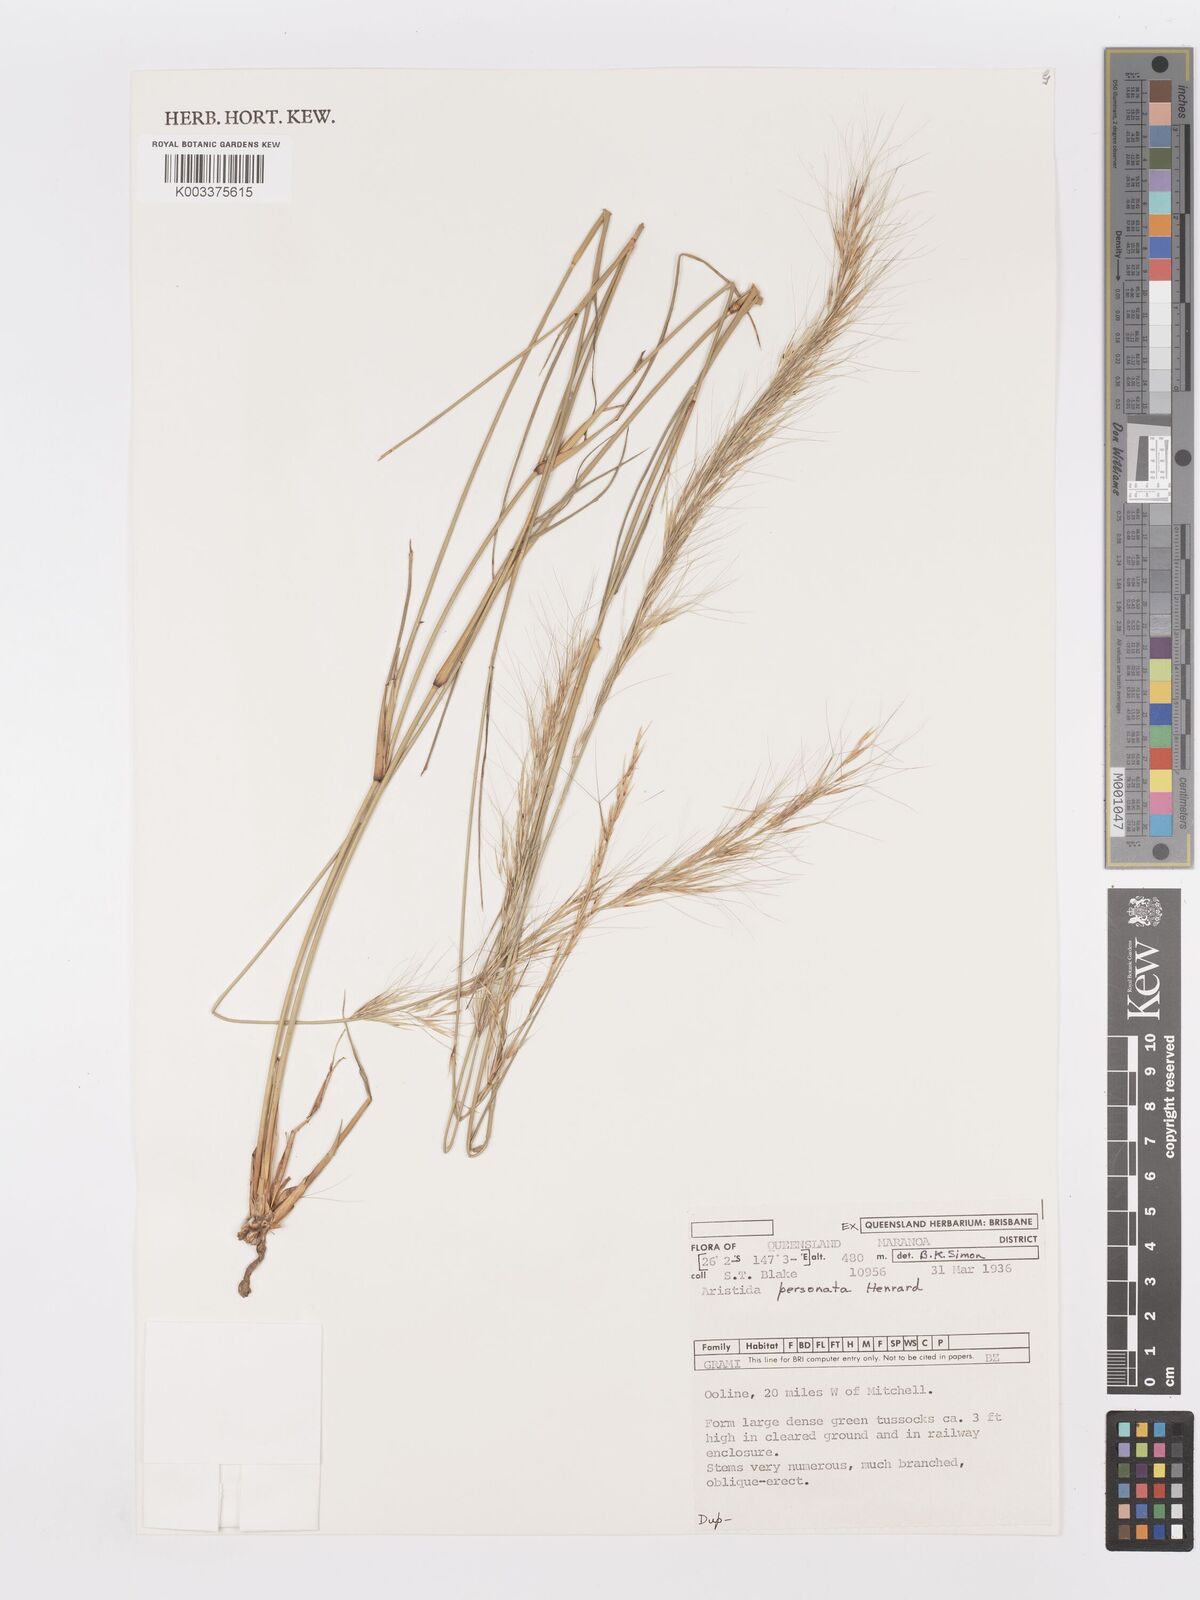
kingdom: Plantae
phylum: Tracheophyta
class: Liliopsida
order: Poales
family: Poaceae
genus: Aristida
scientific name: Aristida personata
